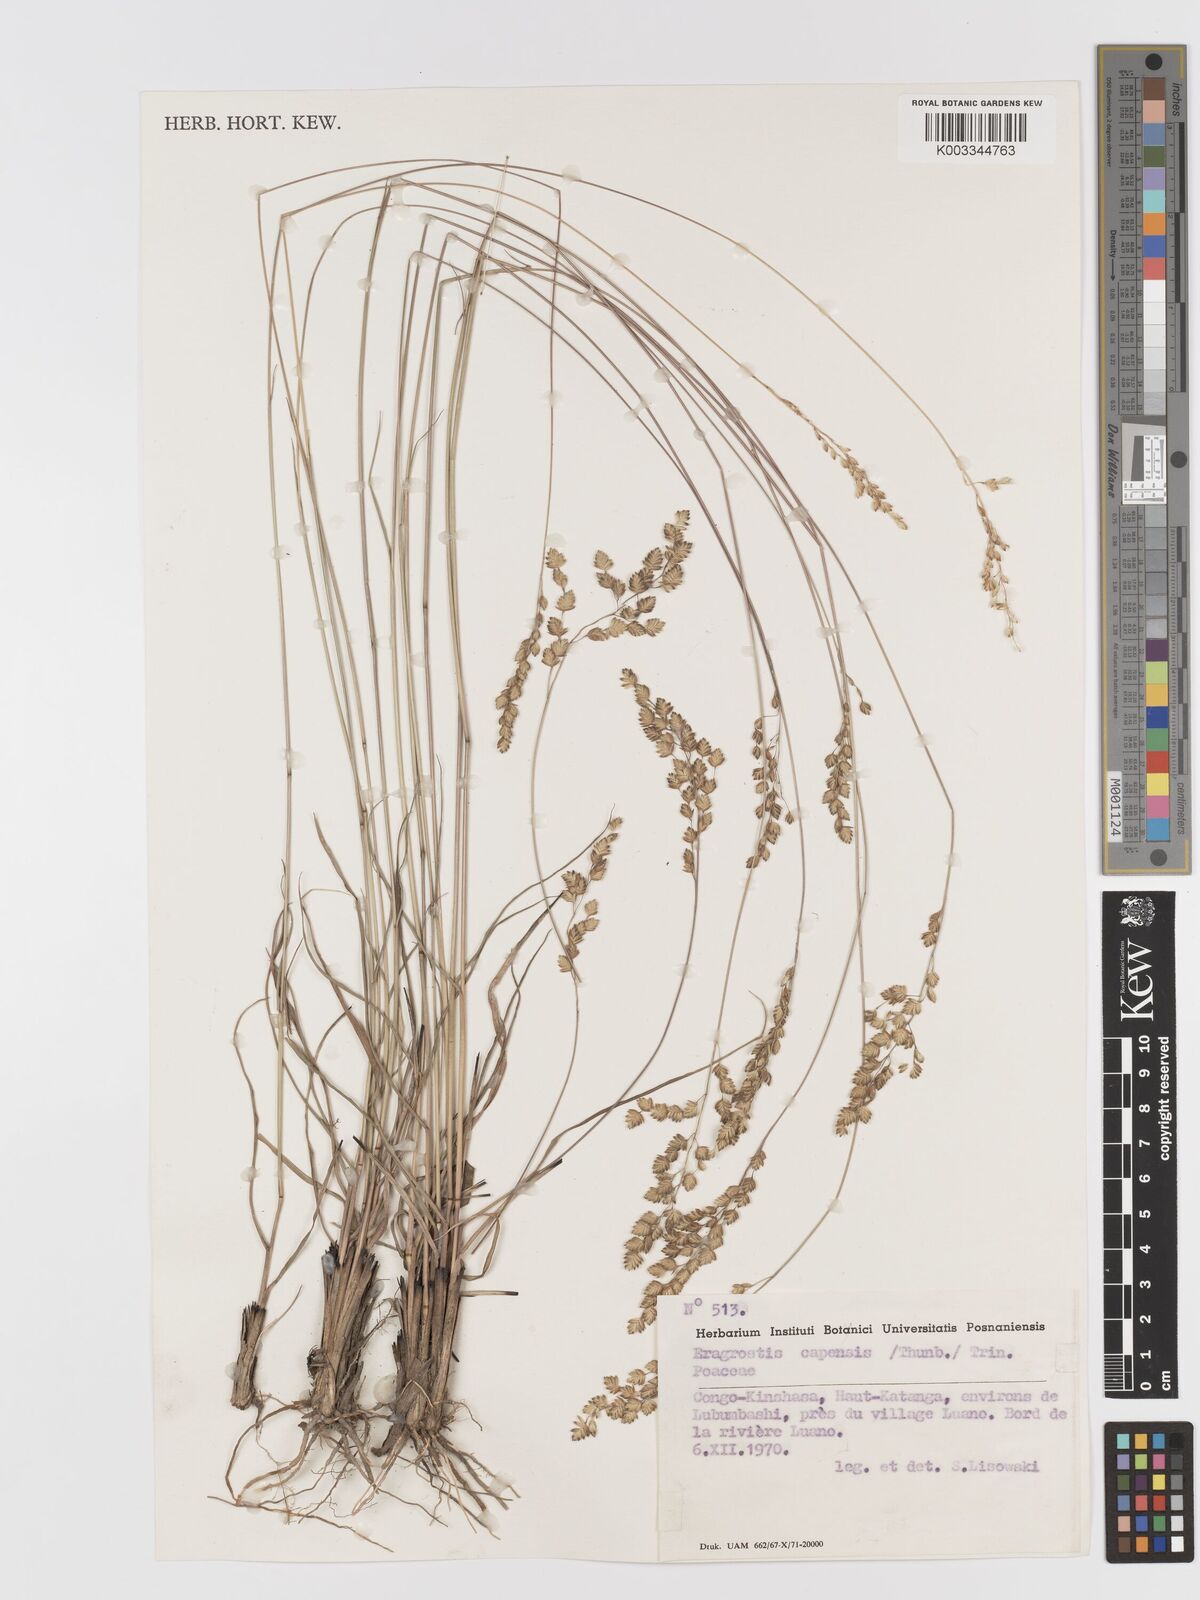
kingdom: Plantae
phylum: Tracheophyta
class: Liliopsida
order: Poales
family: Poaceae
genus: Eragrostis
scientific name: Eragrostis capensis
